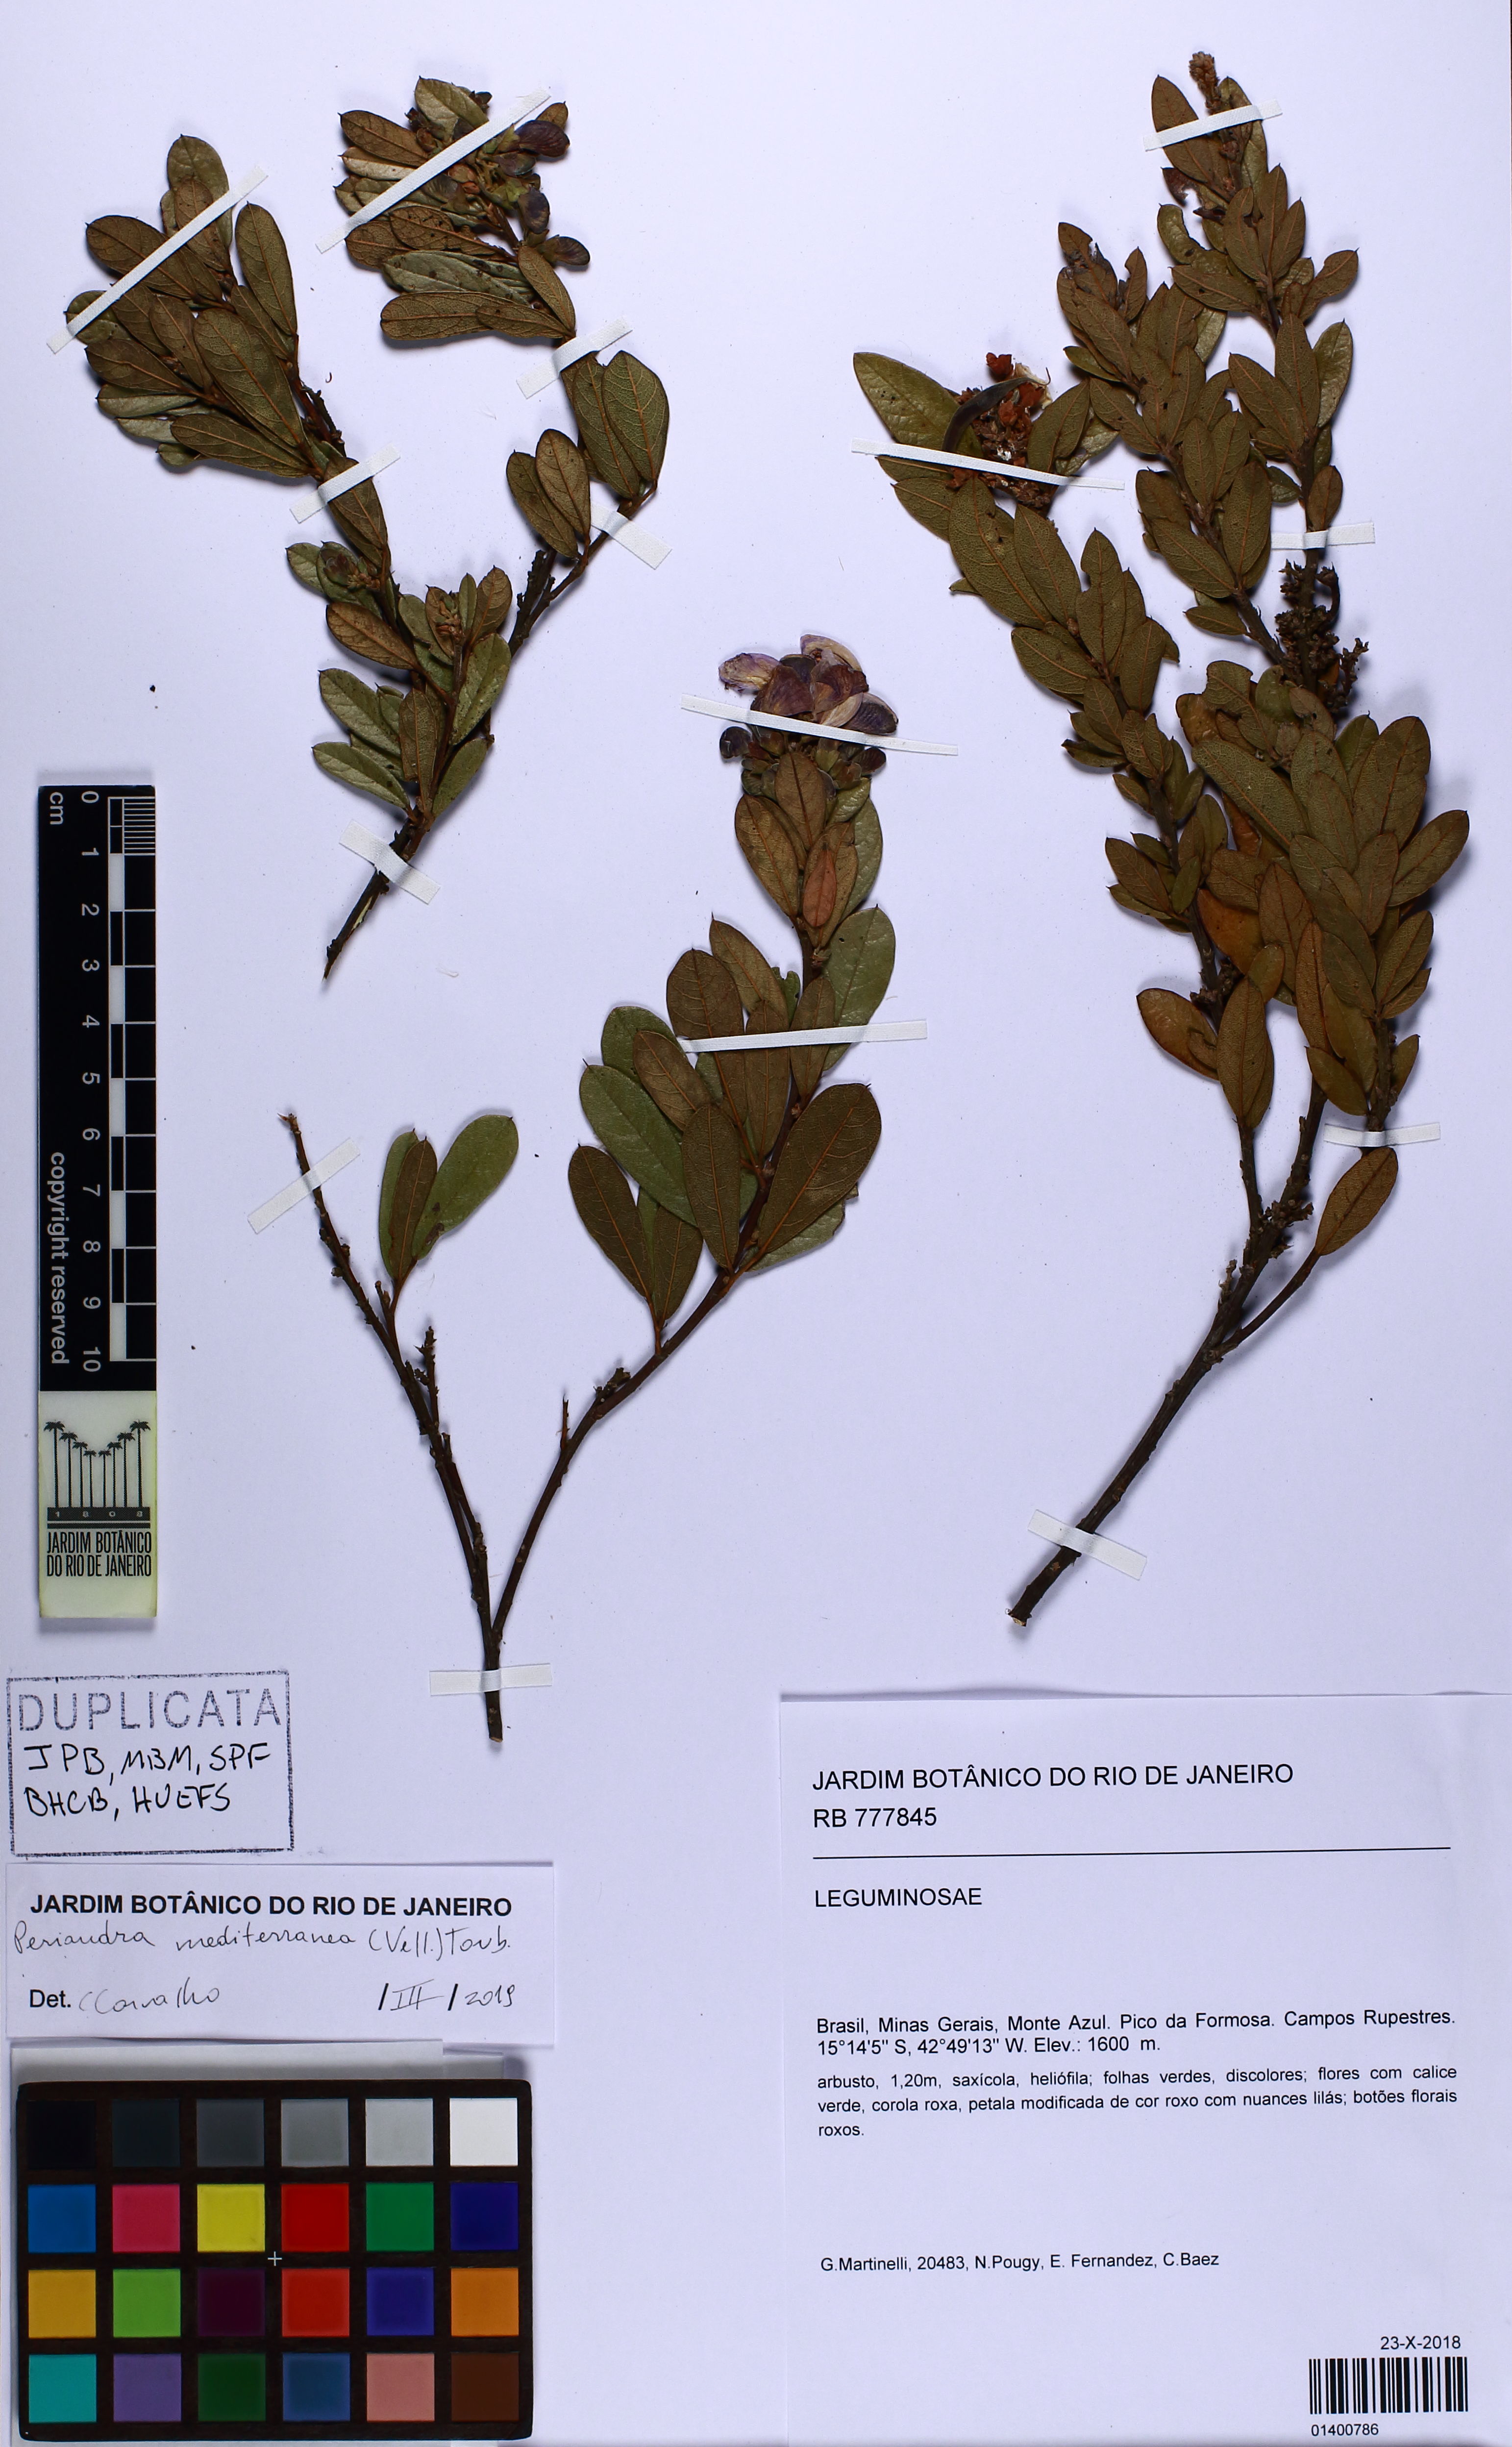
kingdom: Plantae
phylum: Tracheophyta
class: Magnoliopsida
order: Fabales
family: Fabaceae
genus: Periandra
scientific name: Periandra mediterranea
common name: Brazilian licorice
